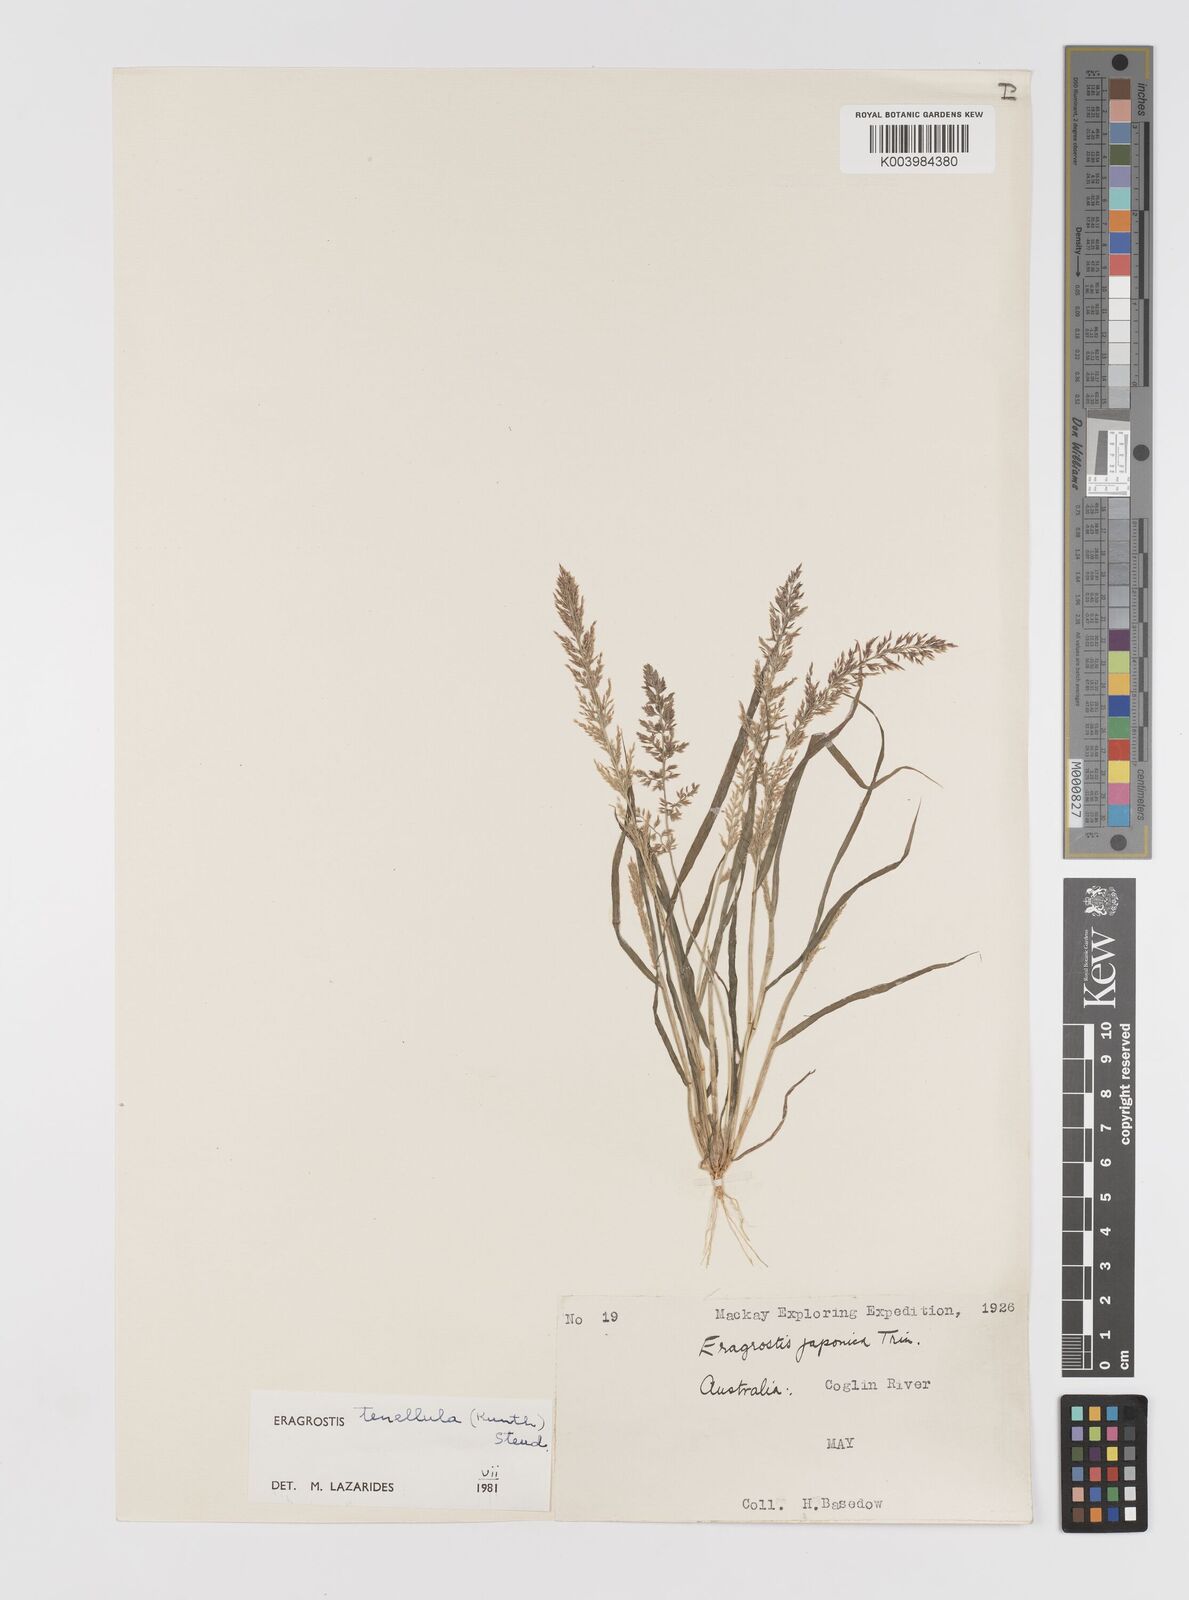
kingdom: Plantae
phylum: Tracheophyta
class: Liliopsida
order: Poales
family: Poaceae
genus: Eragrostis
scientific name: Eragrostis tenellula
